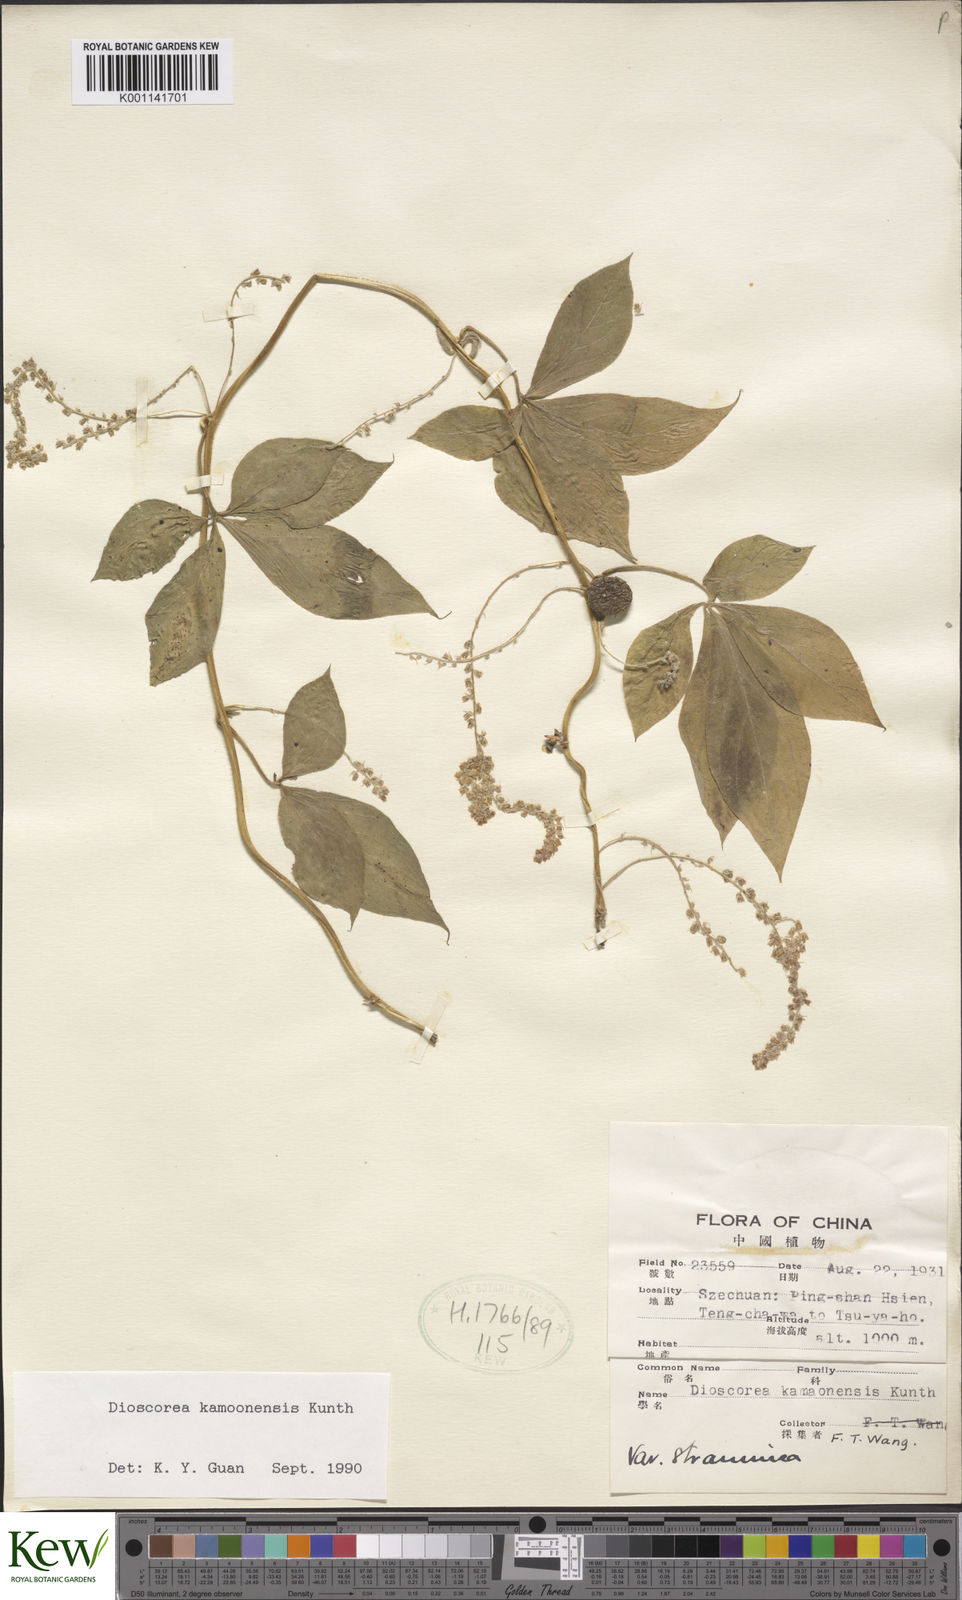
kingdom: Plantae
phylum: Tracheophyta
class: Liliopsida
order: Dioscoreales
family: Dioscoreaceae
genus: Dioscorea
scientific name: Dioscorea kamoonensis
